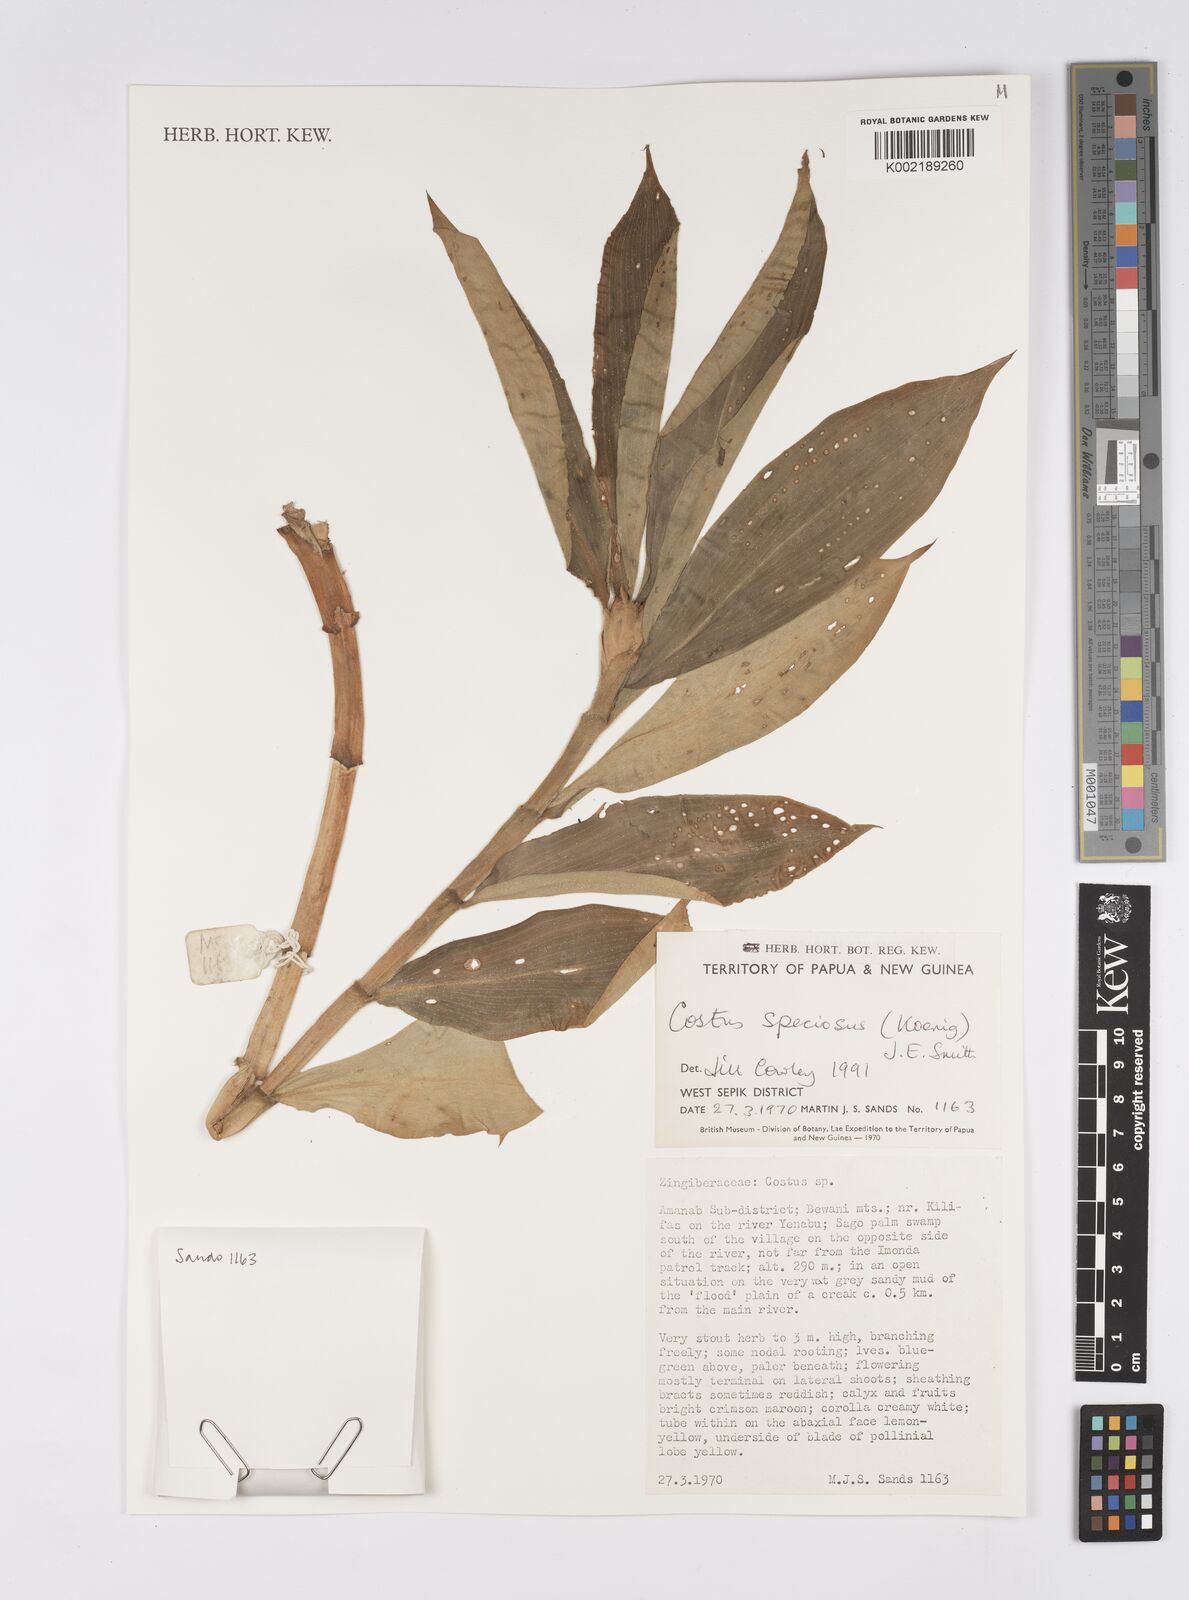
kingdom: Plantae
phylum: Tracheophyta
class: Liliopsida
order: Zingiberales
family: Costaceae
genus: Hellenia
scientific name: Hellenia speciosa
